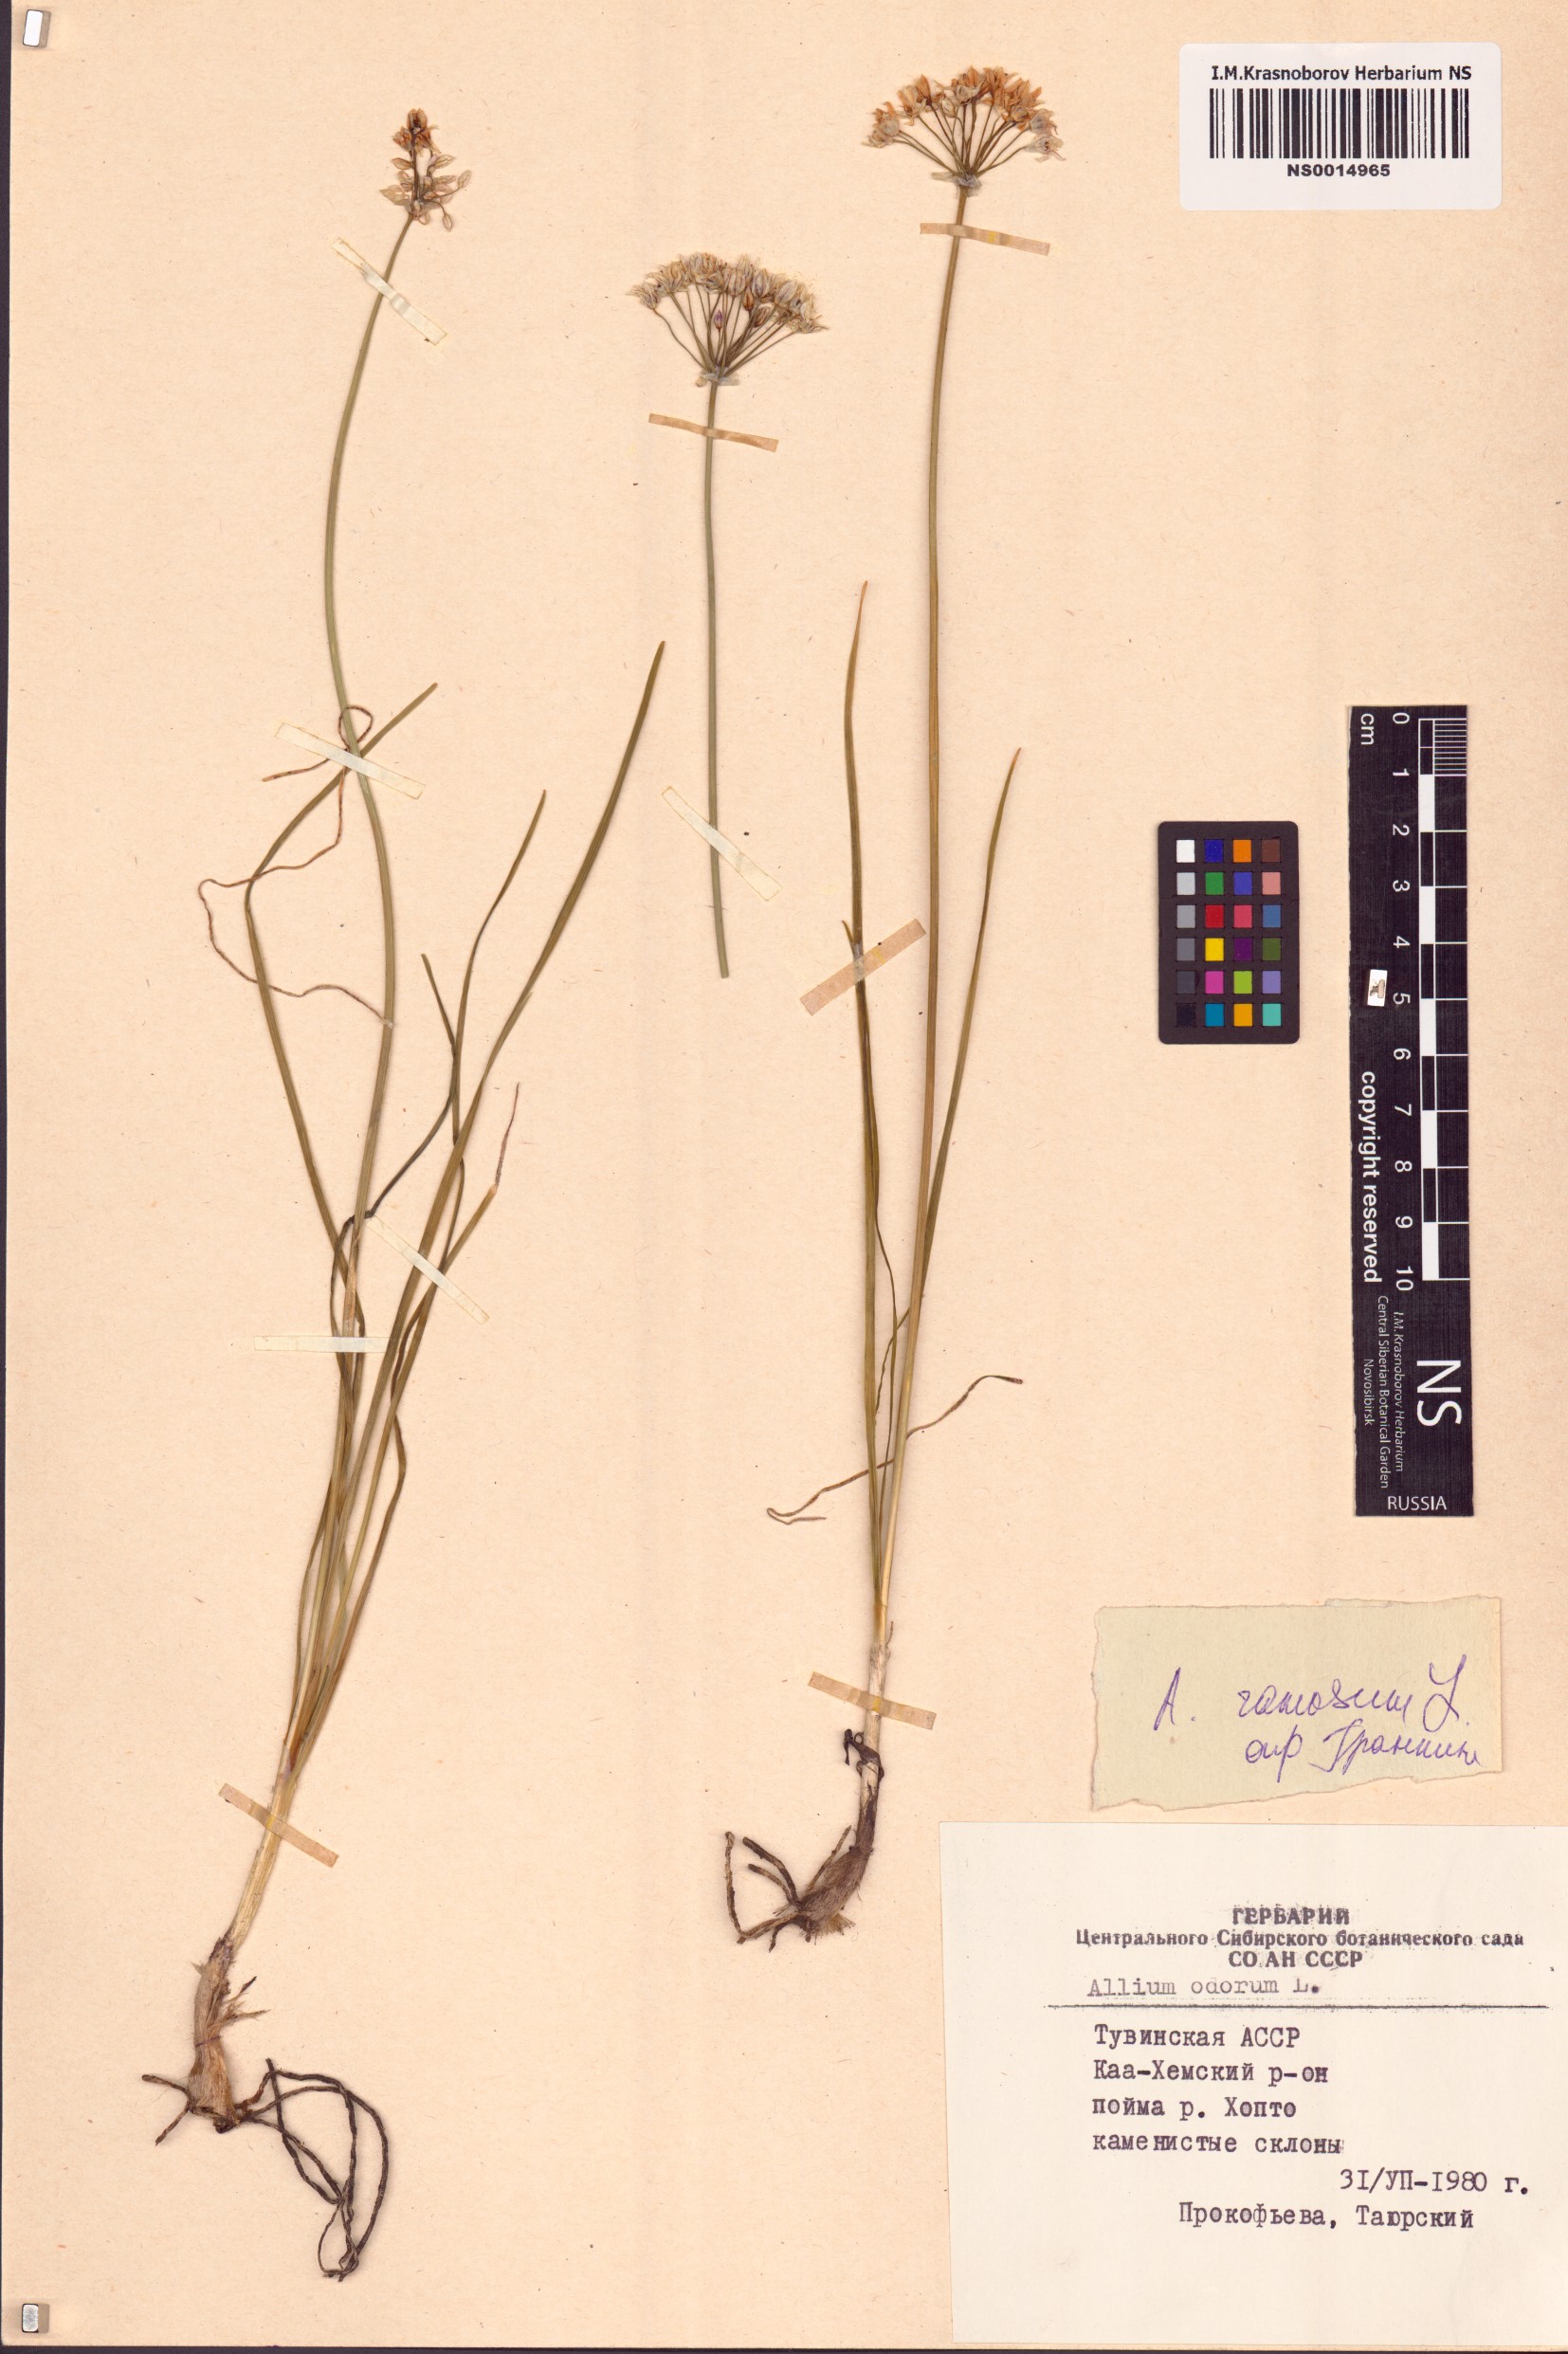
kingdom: Plantae
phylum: Tracheophyta
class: Liliopsida
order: Asparagales
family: Amaryllidaceae
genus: Allium
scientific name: Allium ramosum
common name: Fragrant garlic
